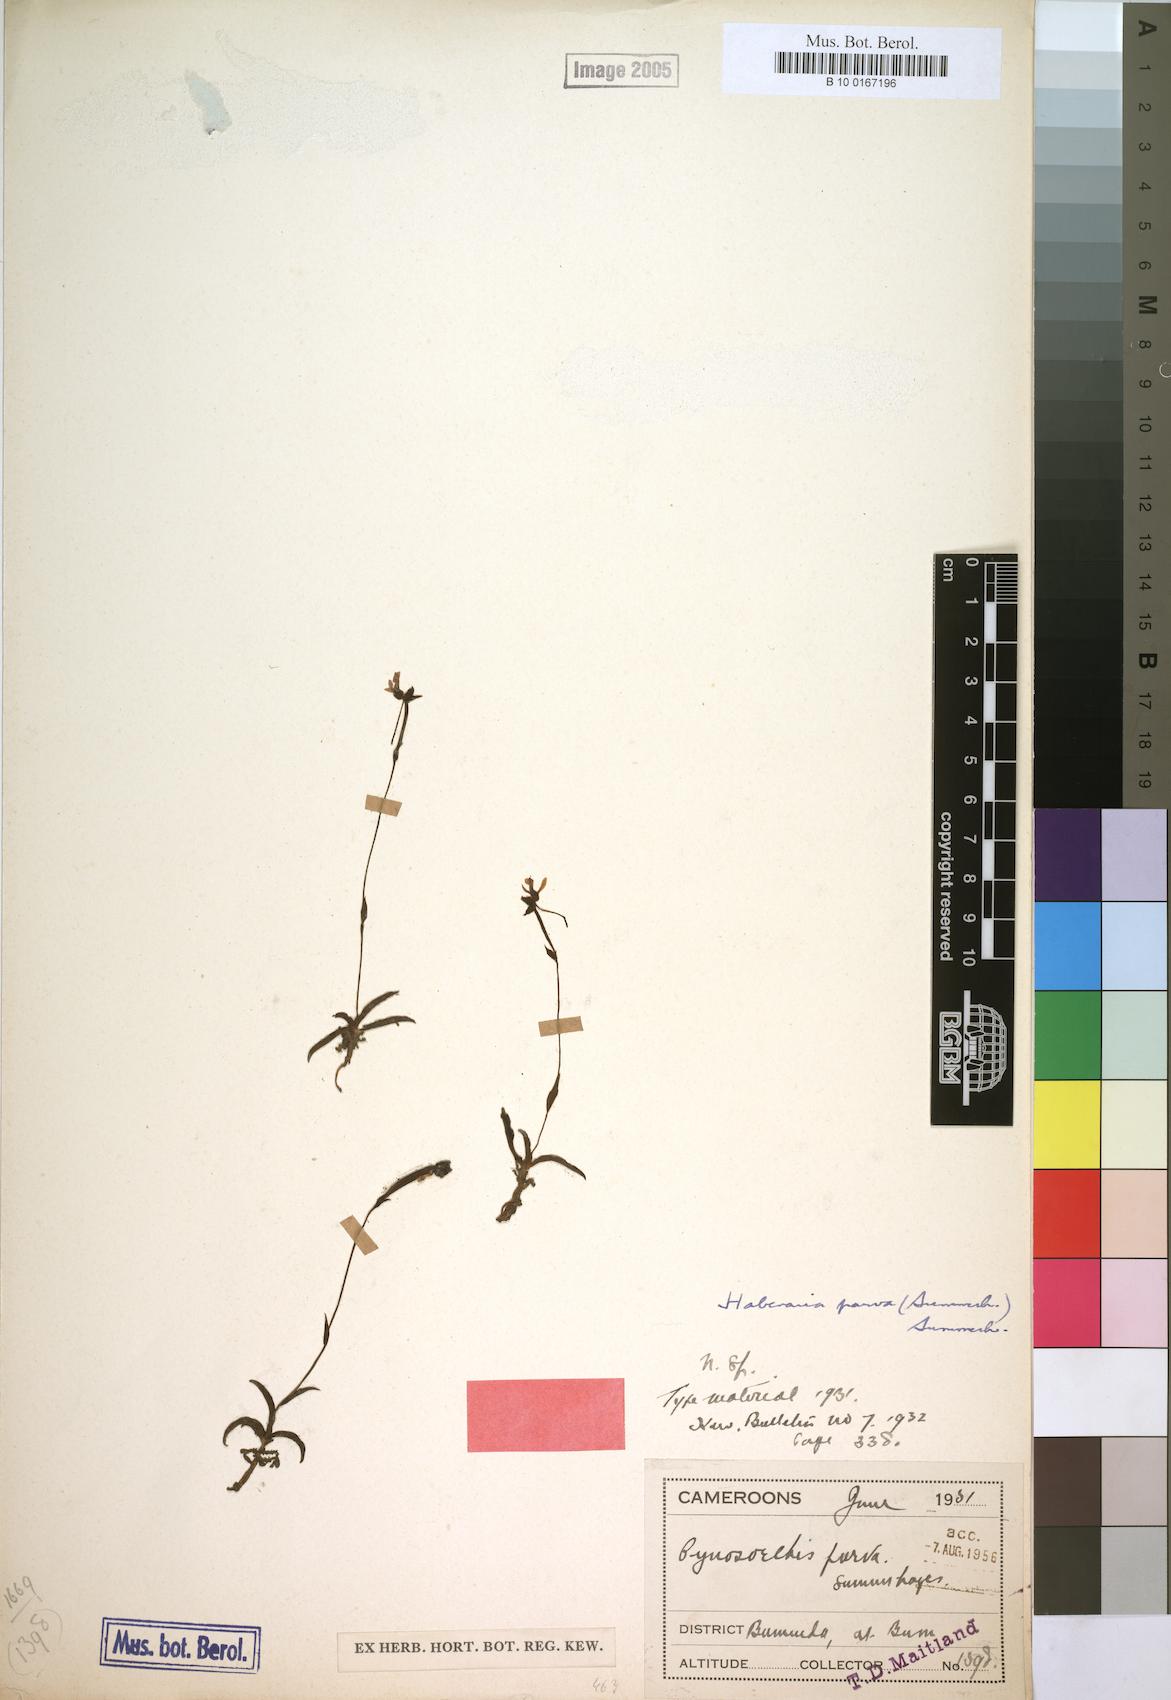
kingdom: Plantae
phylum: Tracheophyta
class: Liliopsida
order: Asparagales
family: Orchidaceae
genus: Habenaria
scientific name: Habenaria parva
